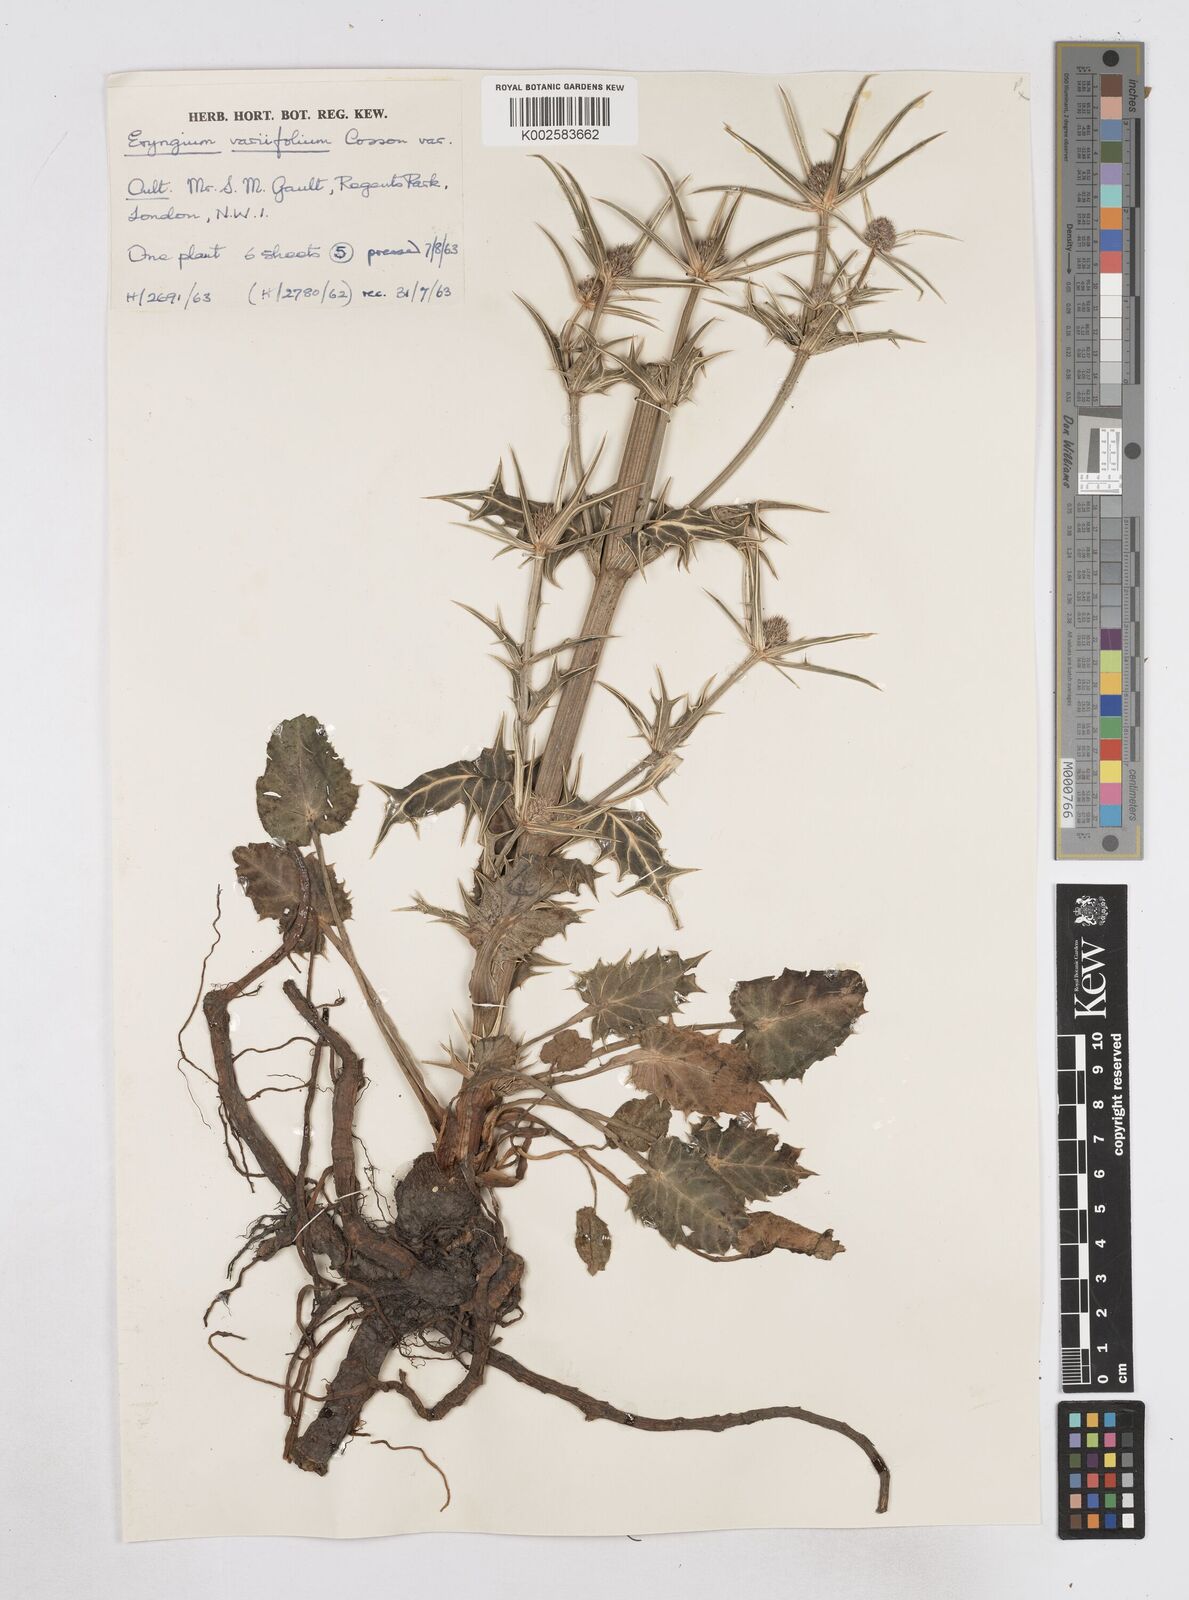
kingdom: Plantae
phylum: Tracheophyta
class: Magnoliopsida
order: Apiales
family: Apiaceae
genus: Eryngium
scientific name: Eryngium variifolium
